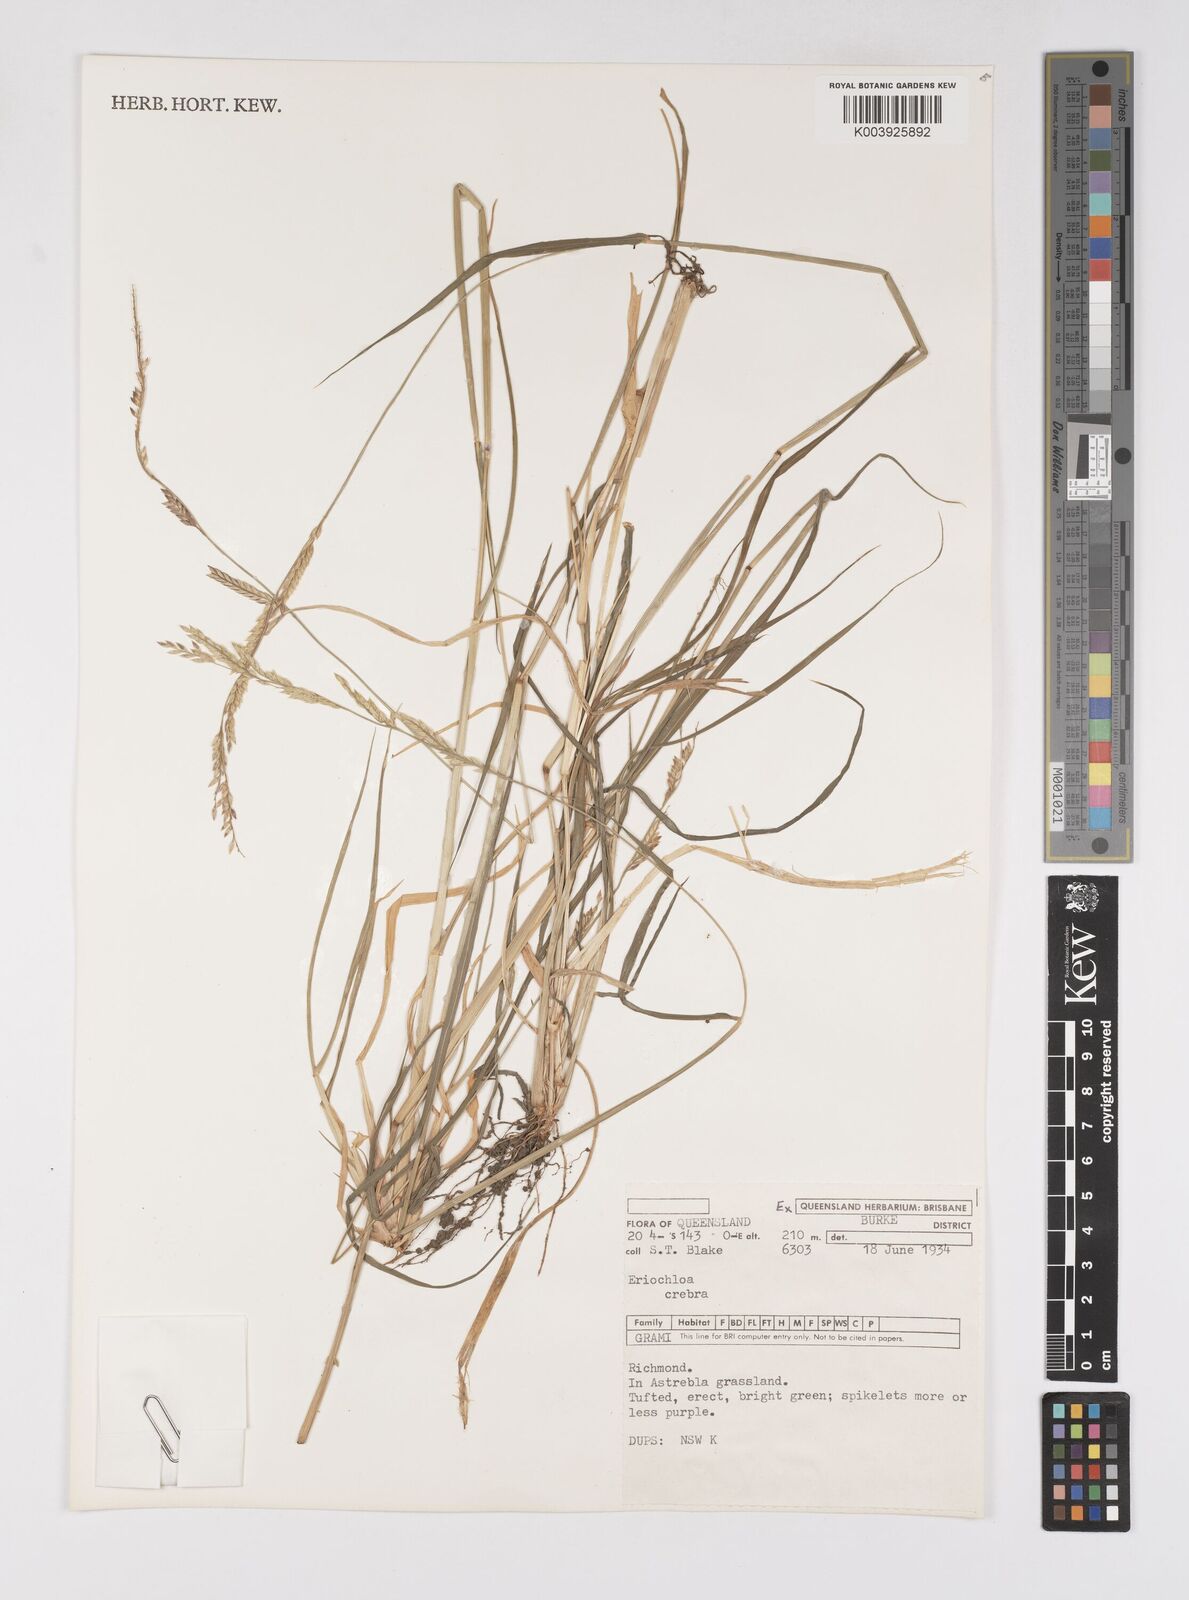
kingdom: Plantae
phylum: Tracheophyta
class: Liliopsida
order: Poales
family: Poaceae
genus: Eriochloa
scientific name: Eriochloa crebra
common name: Cup grass
